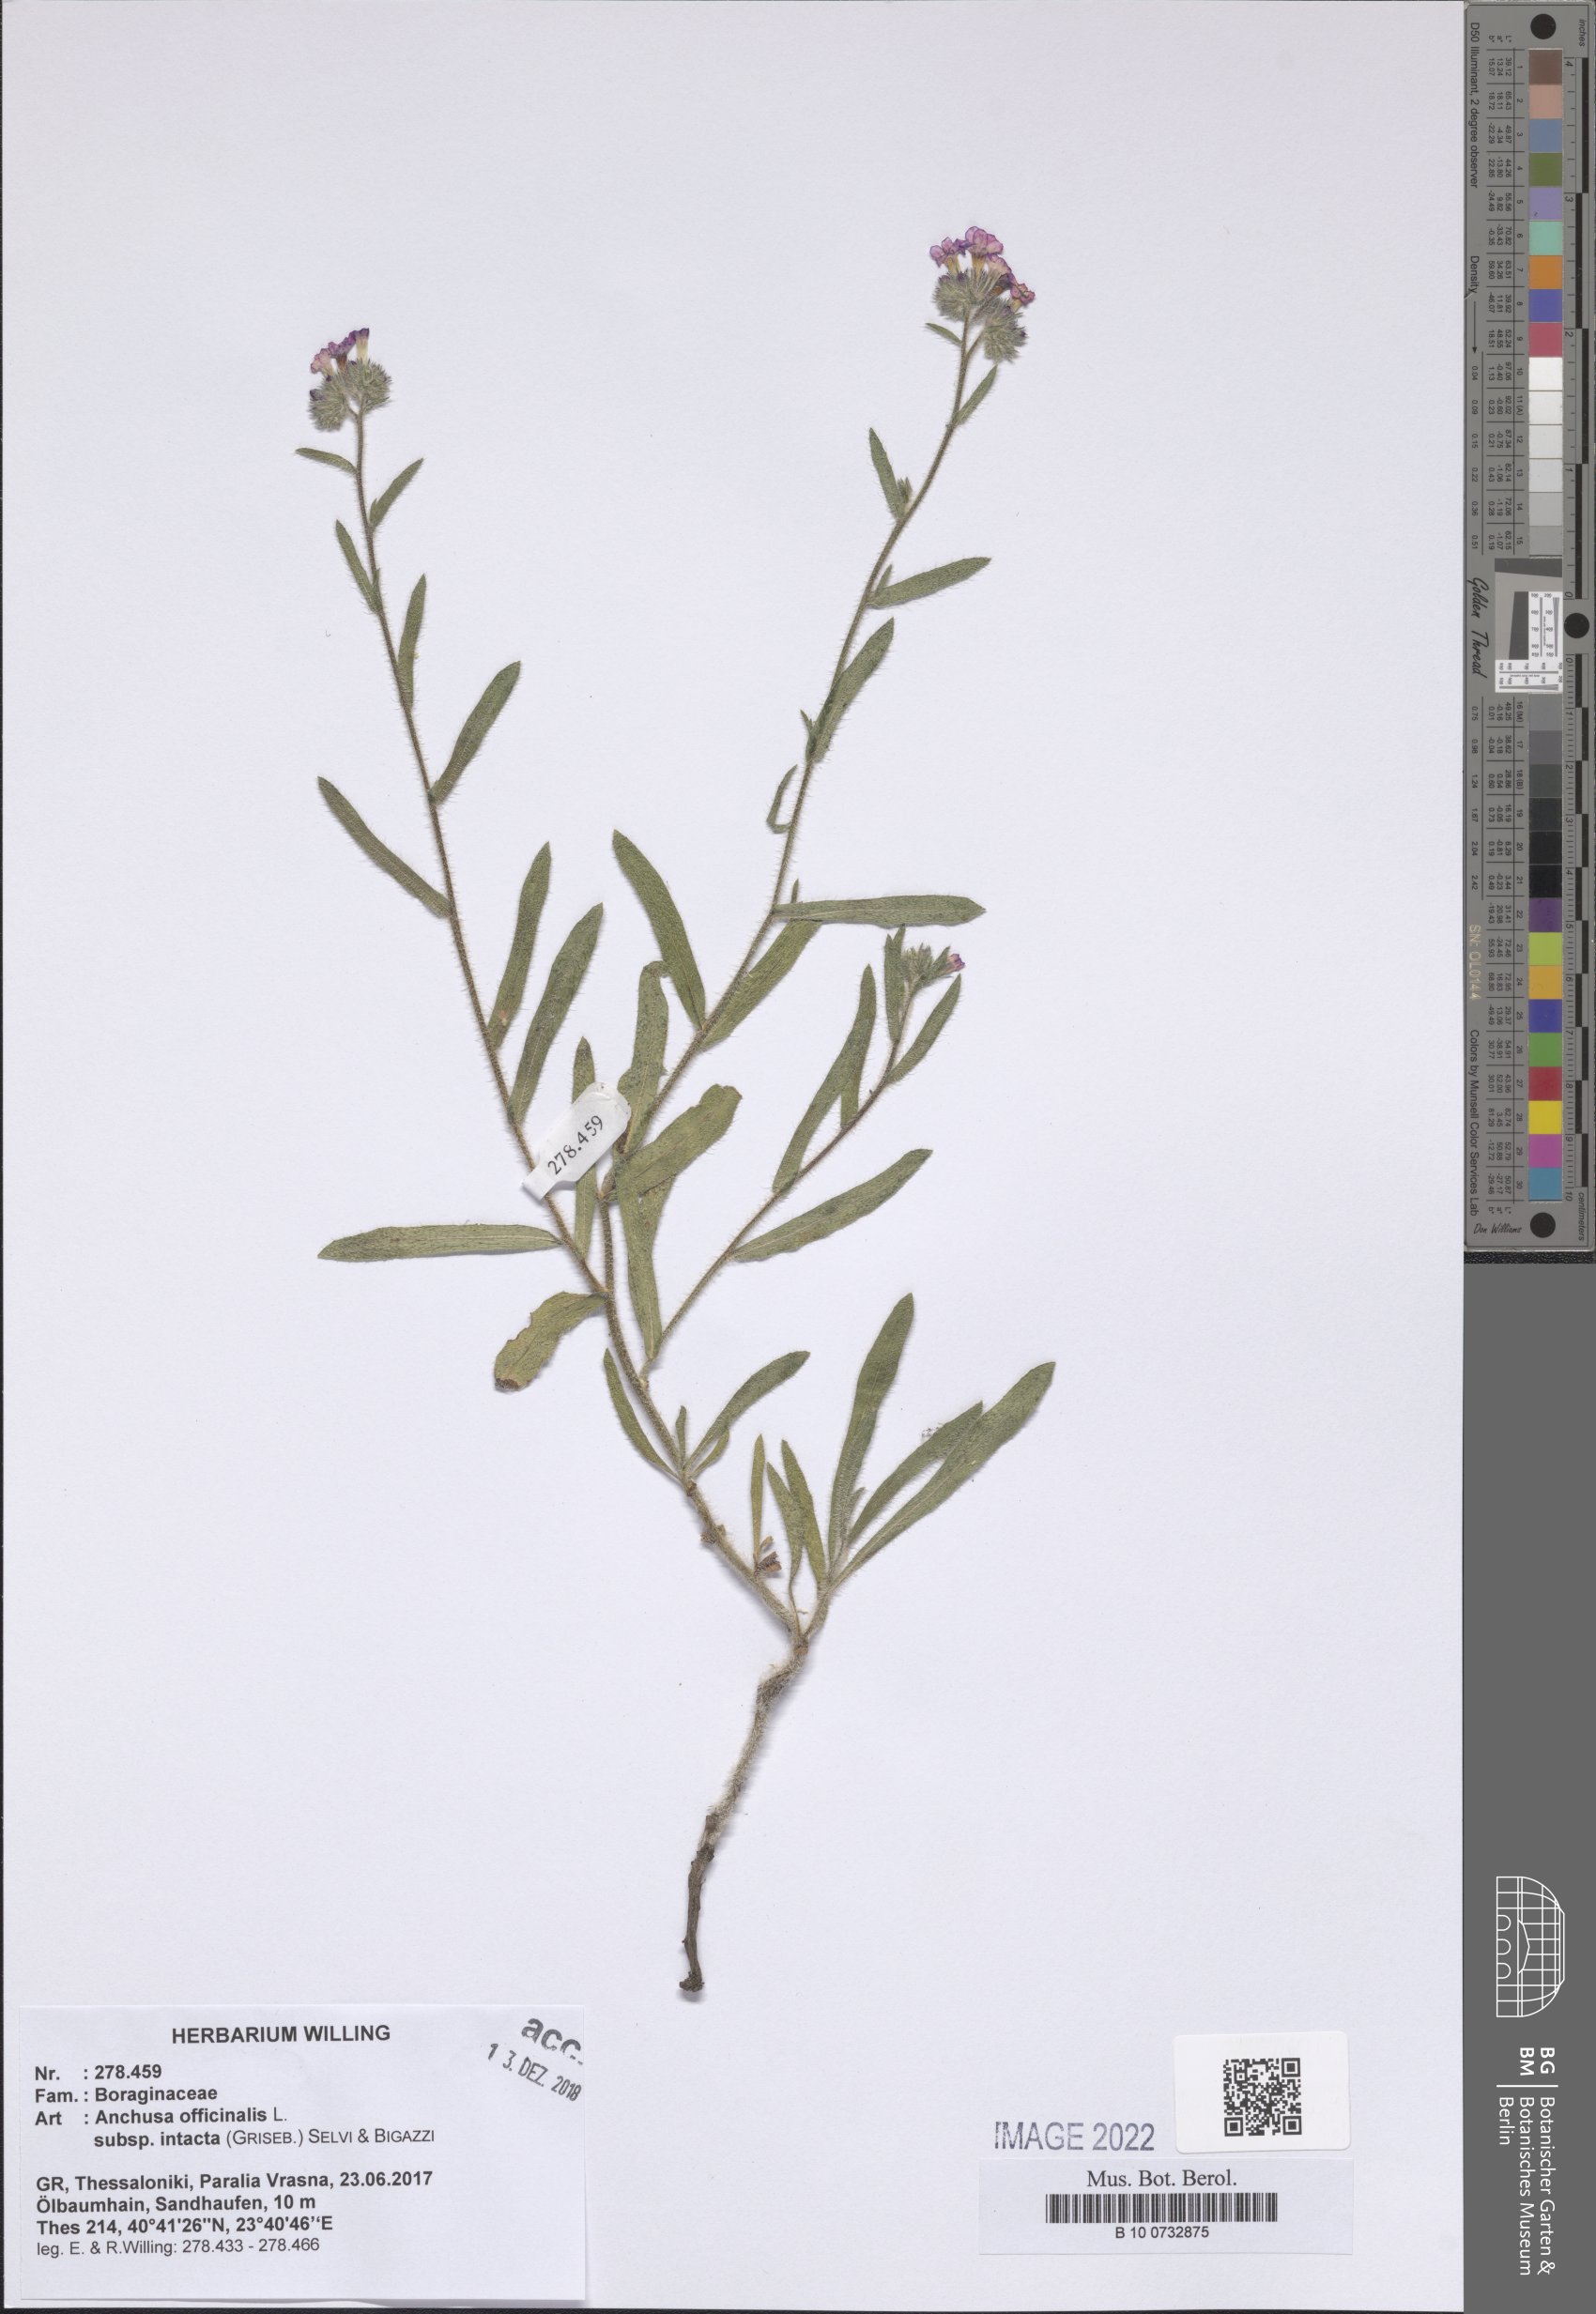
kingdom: Plantae
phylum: Tracheophyta
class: Magnoliopsida
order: Boraginales
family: Boraginaceae
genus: Anchusa
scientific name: Anchusa officinalis
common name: Alkanet
